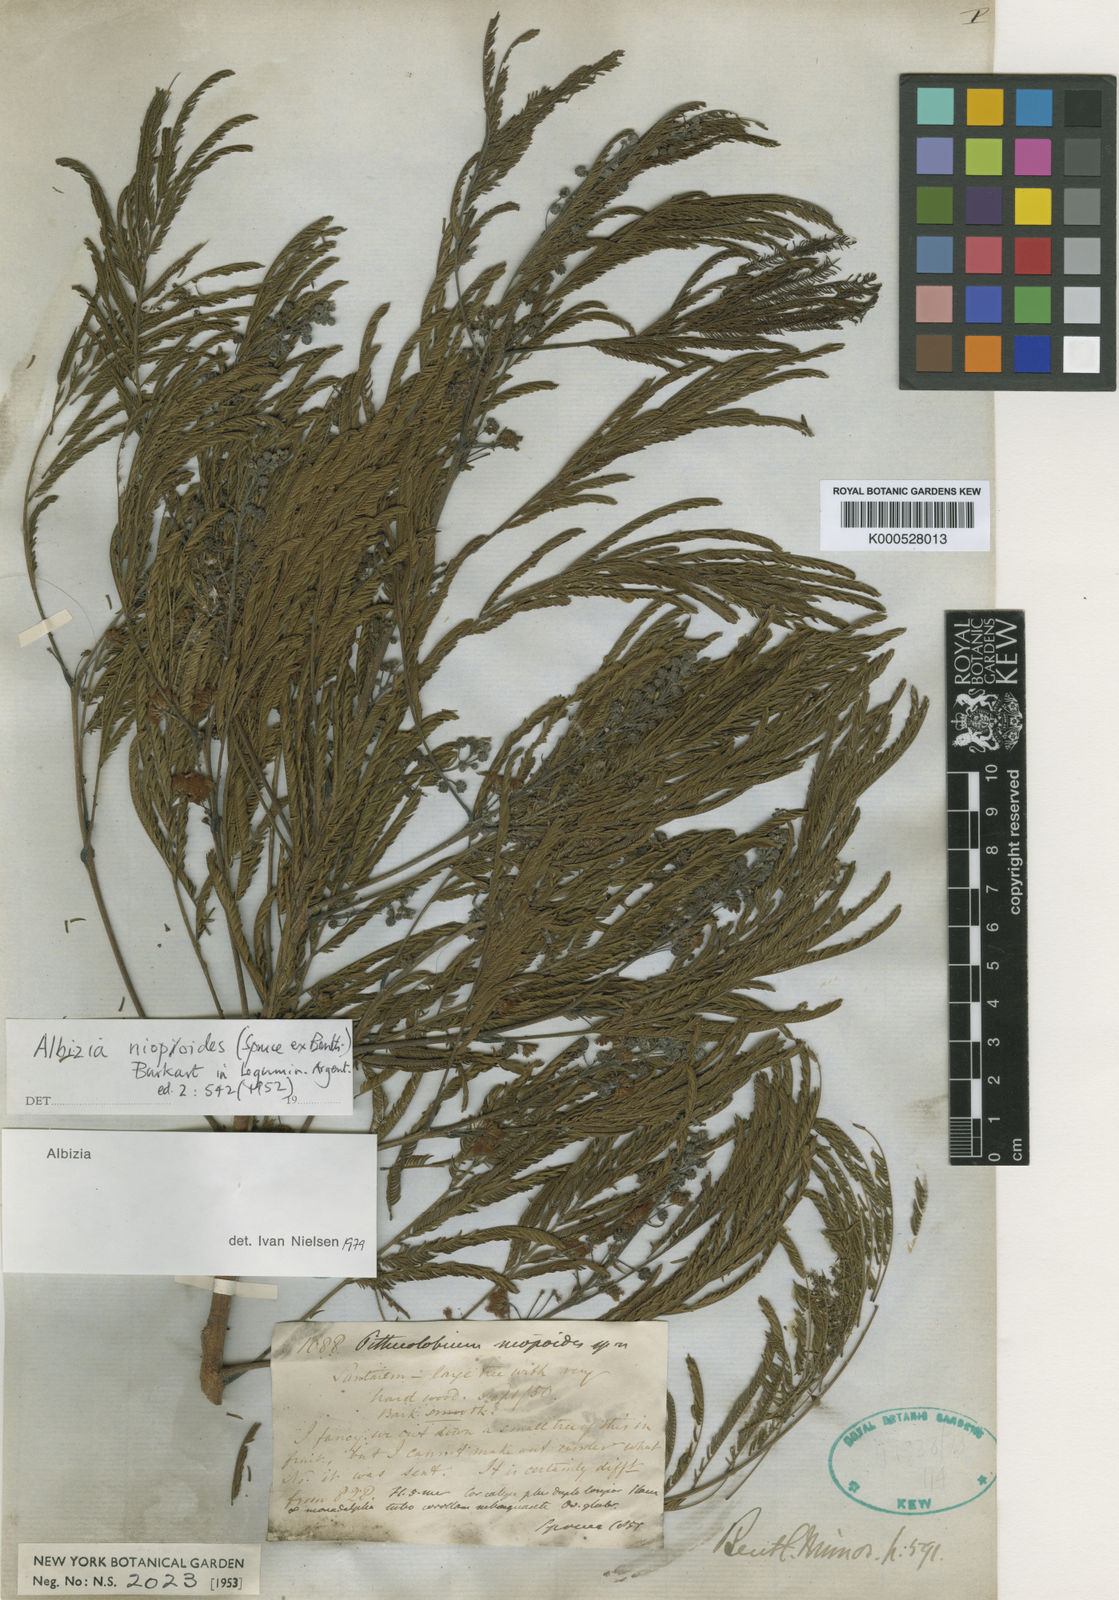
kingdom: Plantae
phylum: Tracheophyta
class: Magnoliopsida
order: Fabales
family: Fabaceae
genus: Albizia
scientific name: Albizia niopoides
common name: Silk tree
